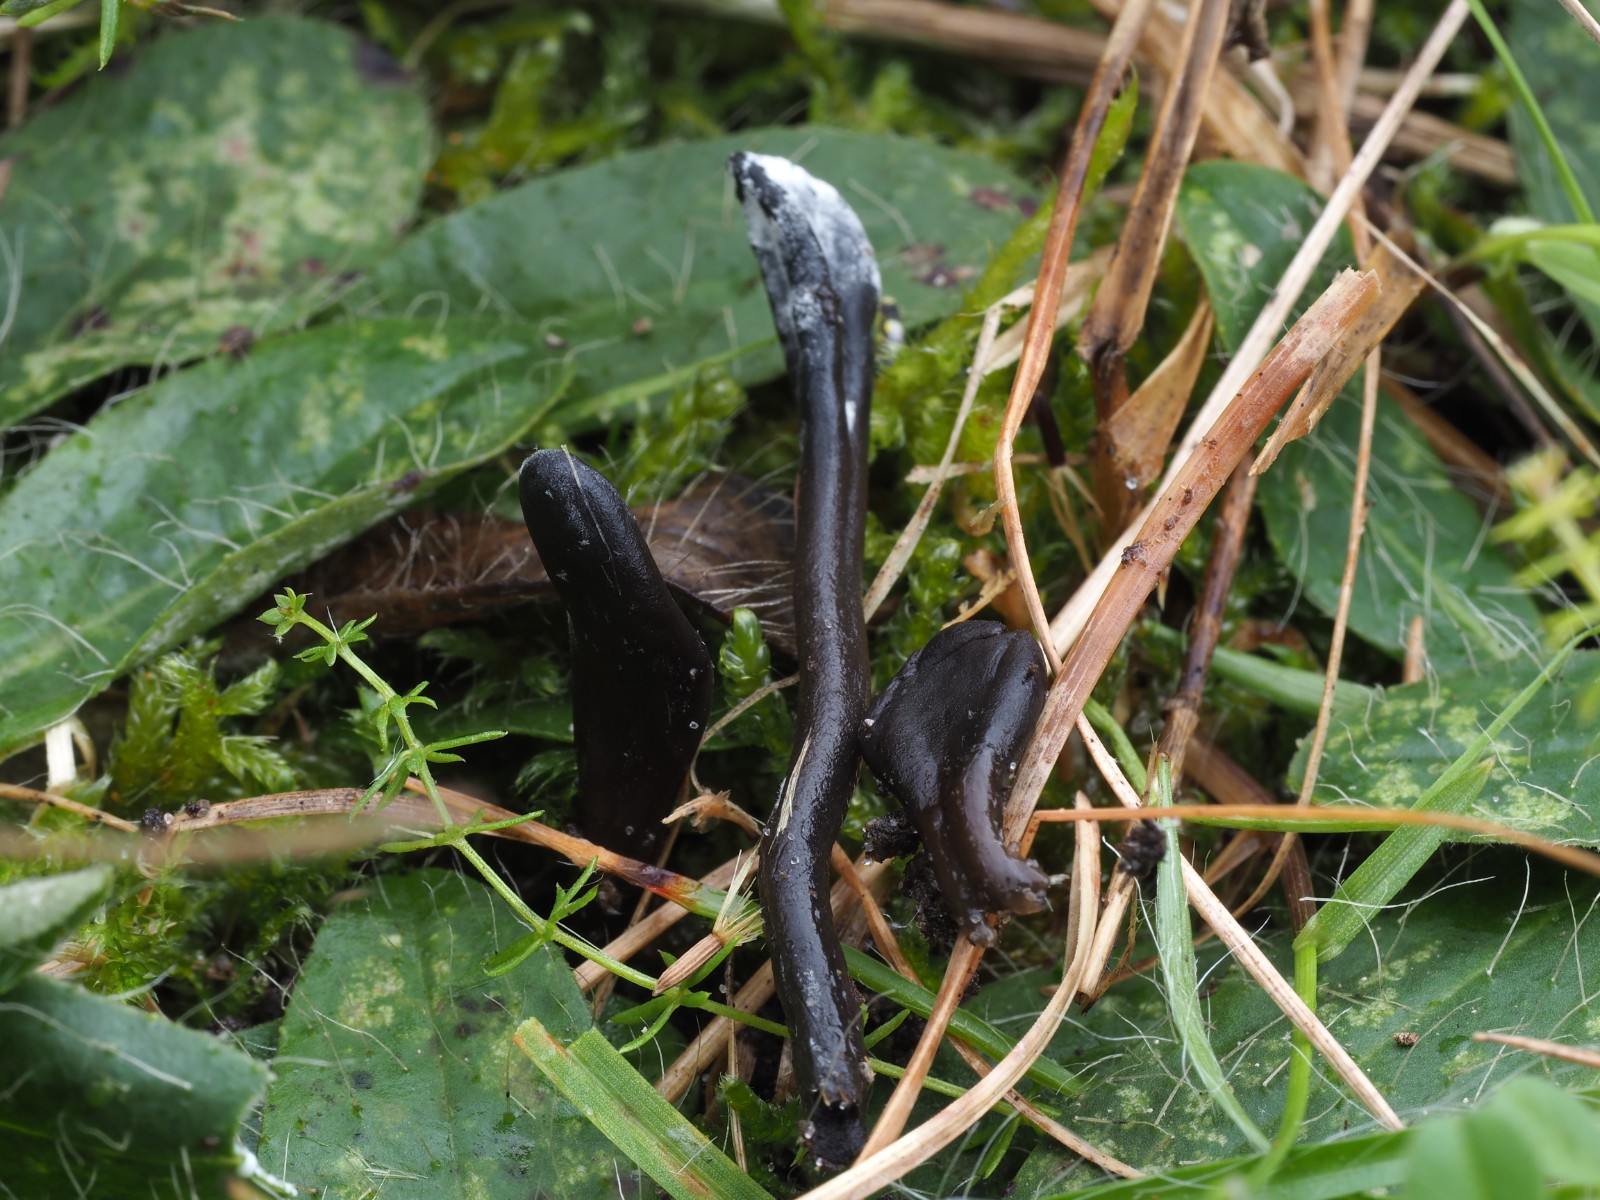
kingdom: Fungi
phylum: Ascomycota
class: Geoglossomycetes
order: Geoglossales
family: Geoglossaceae
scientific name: Geoglossaceae
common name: jordtungefamilien
